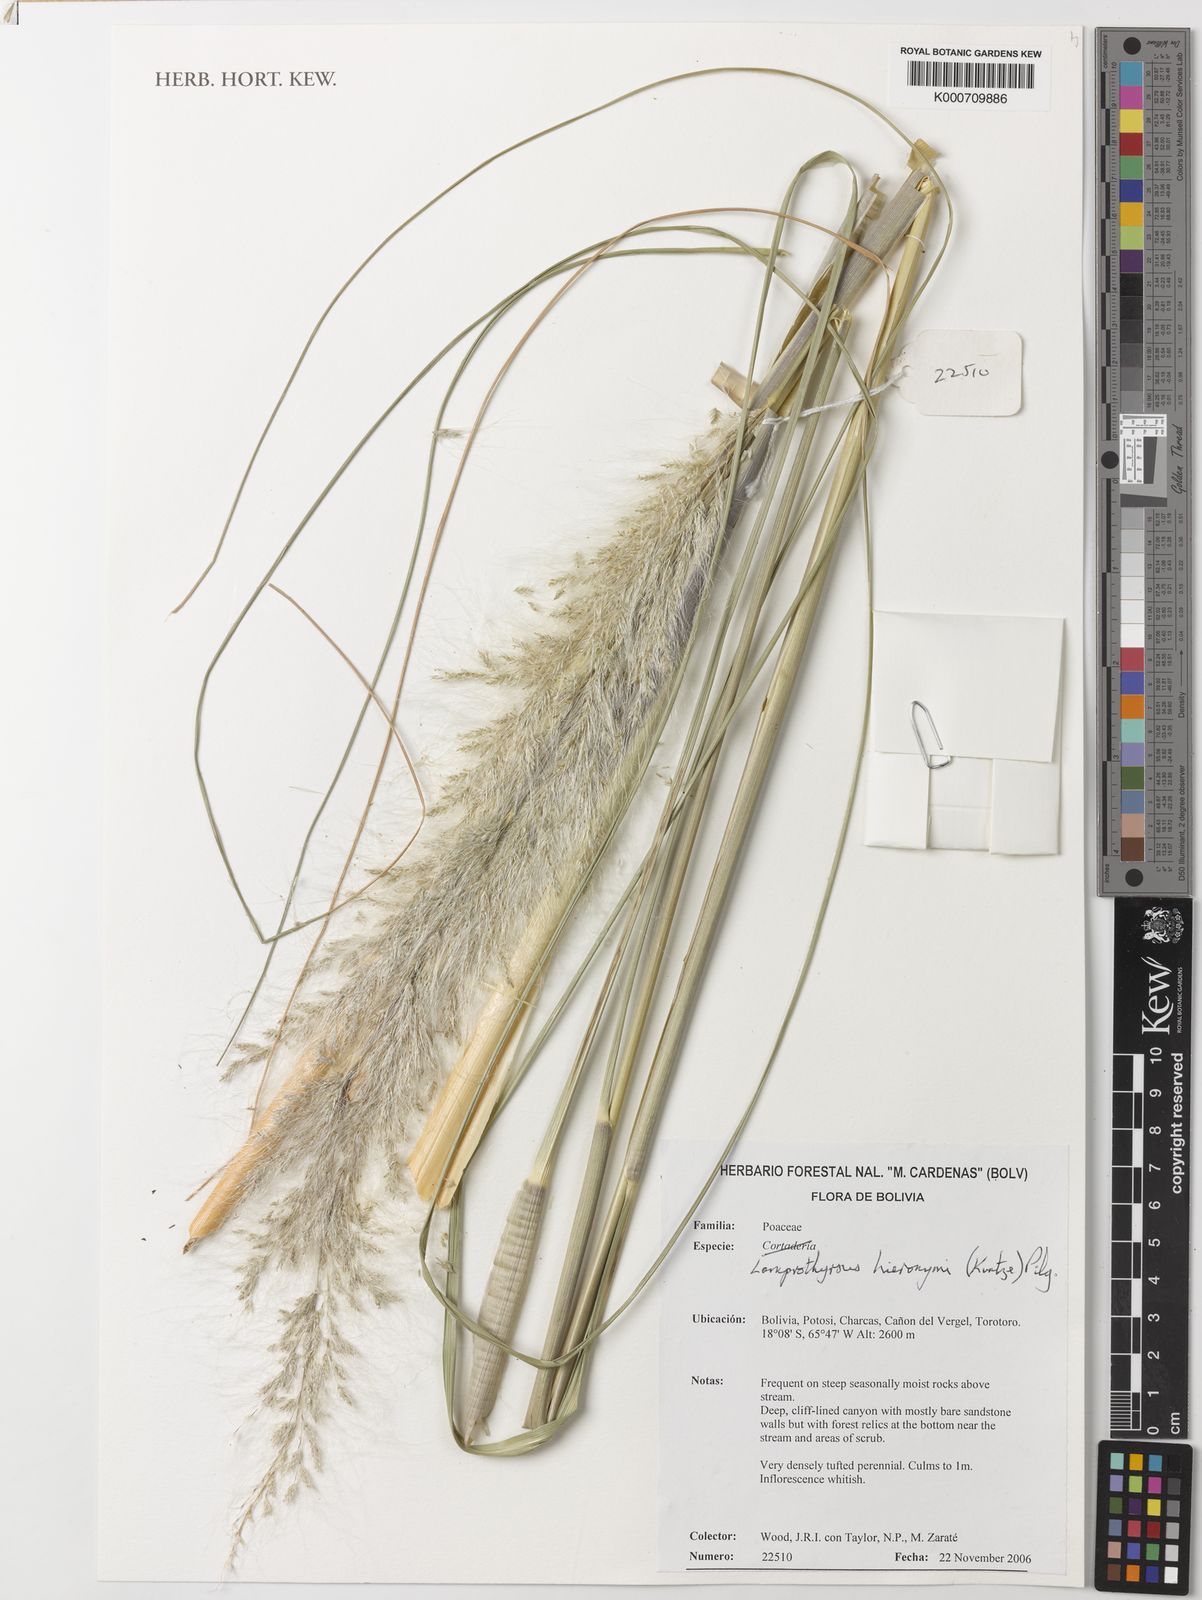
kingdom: Plantae
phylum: Tracheophyta
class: Liliopsida
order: Poales
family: Poaceae
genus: Cortaderia
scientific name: Cortaderia hieronymi
